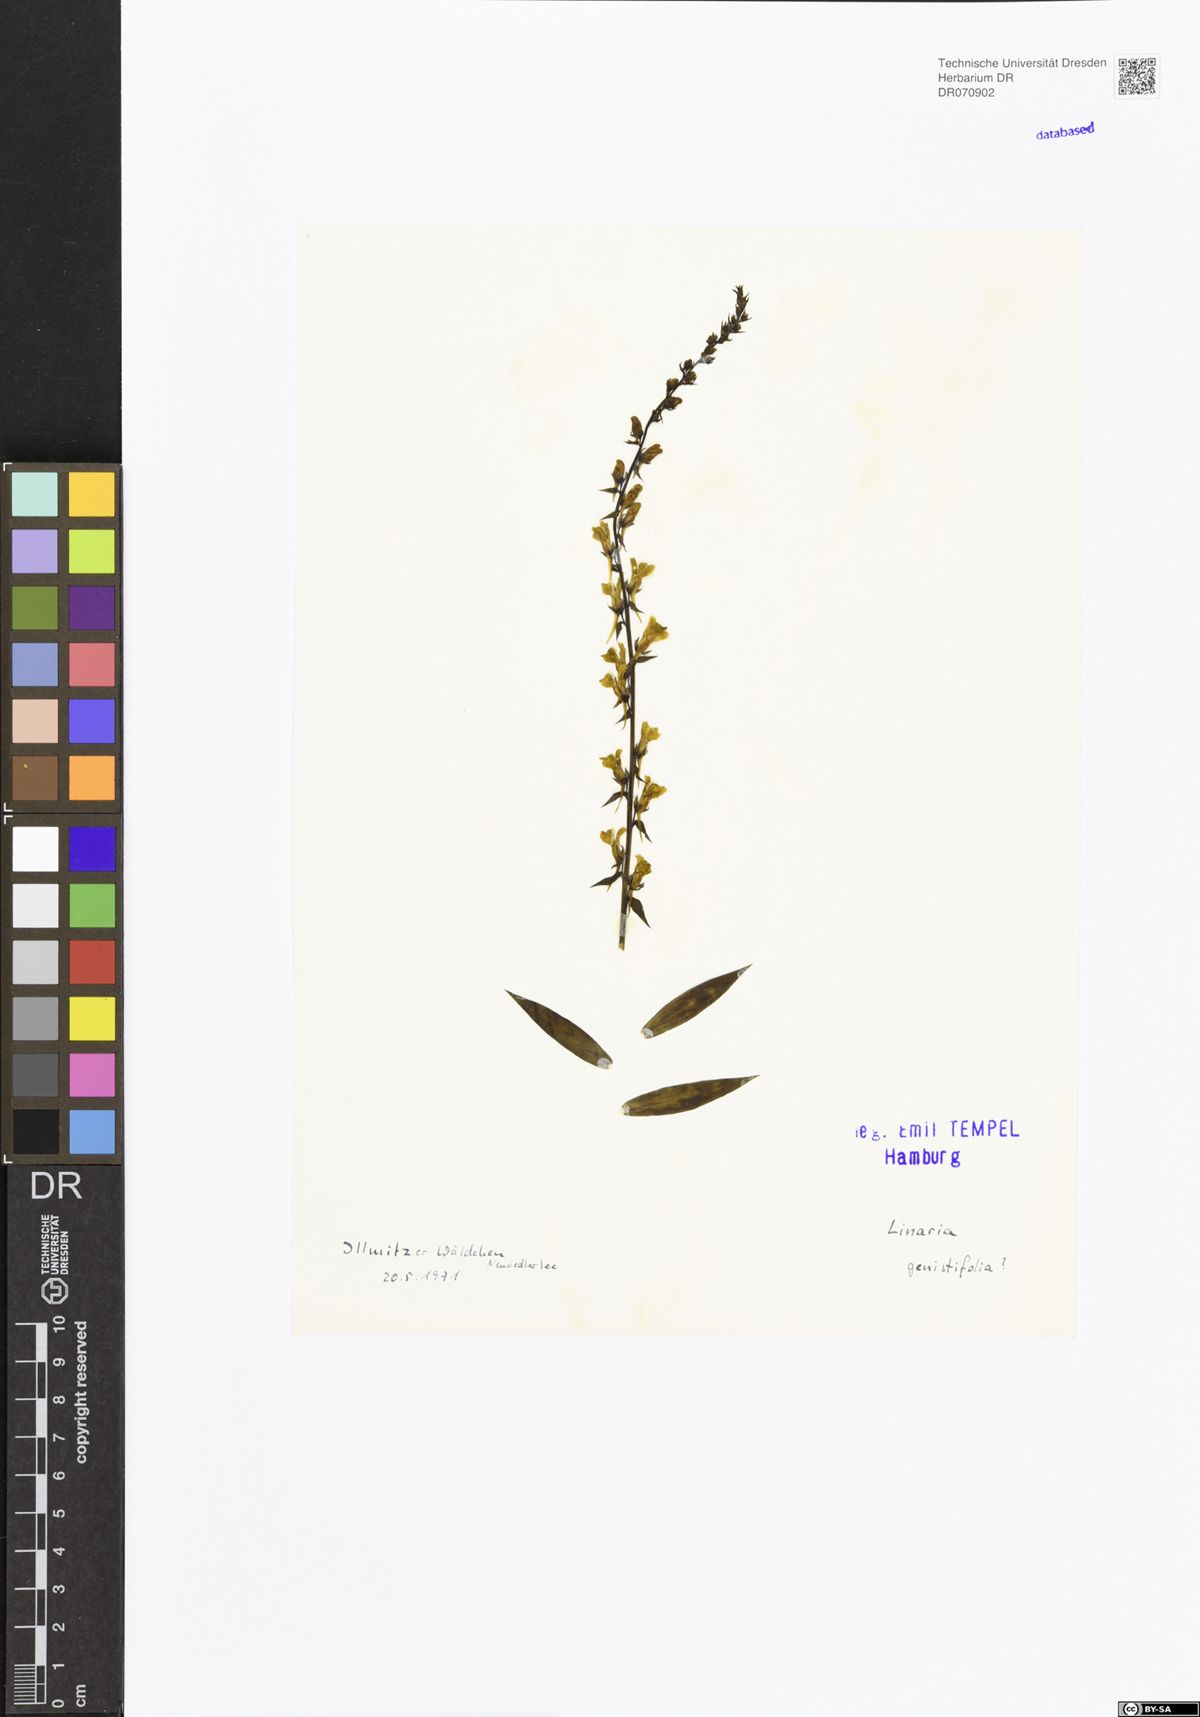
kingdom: Plantae
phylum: Tracheophyta
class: Magnoliopsida
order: Lamiales
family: Plantaginaceae
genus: Linaria
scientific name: Linaria genistifolia
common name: Broomleaf toadflax
